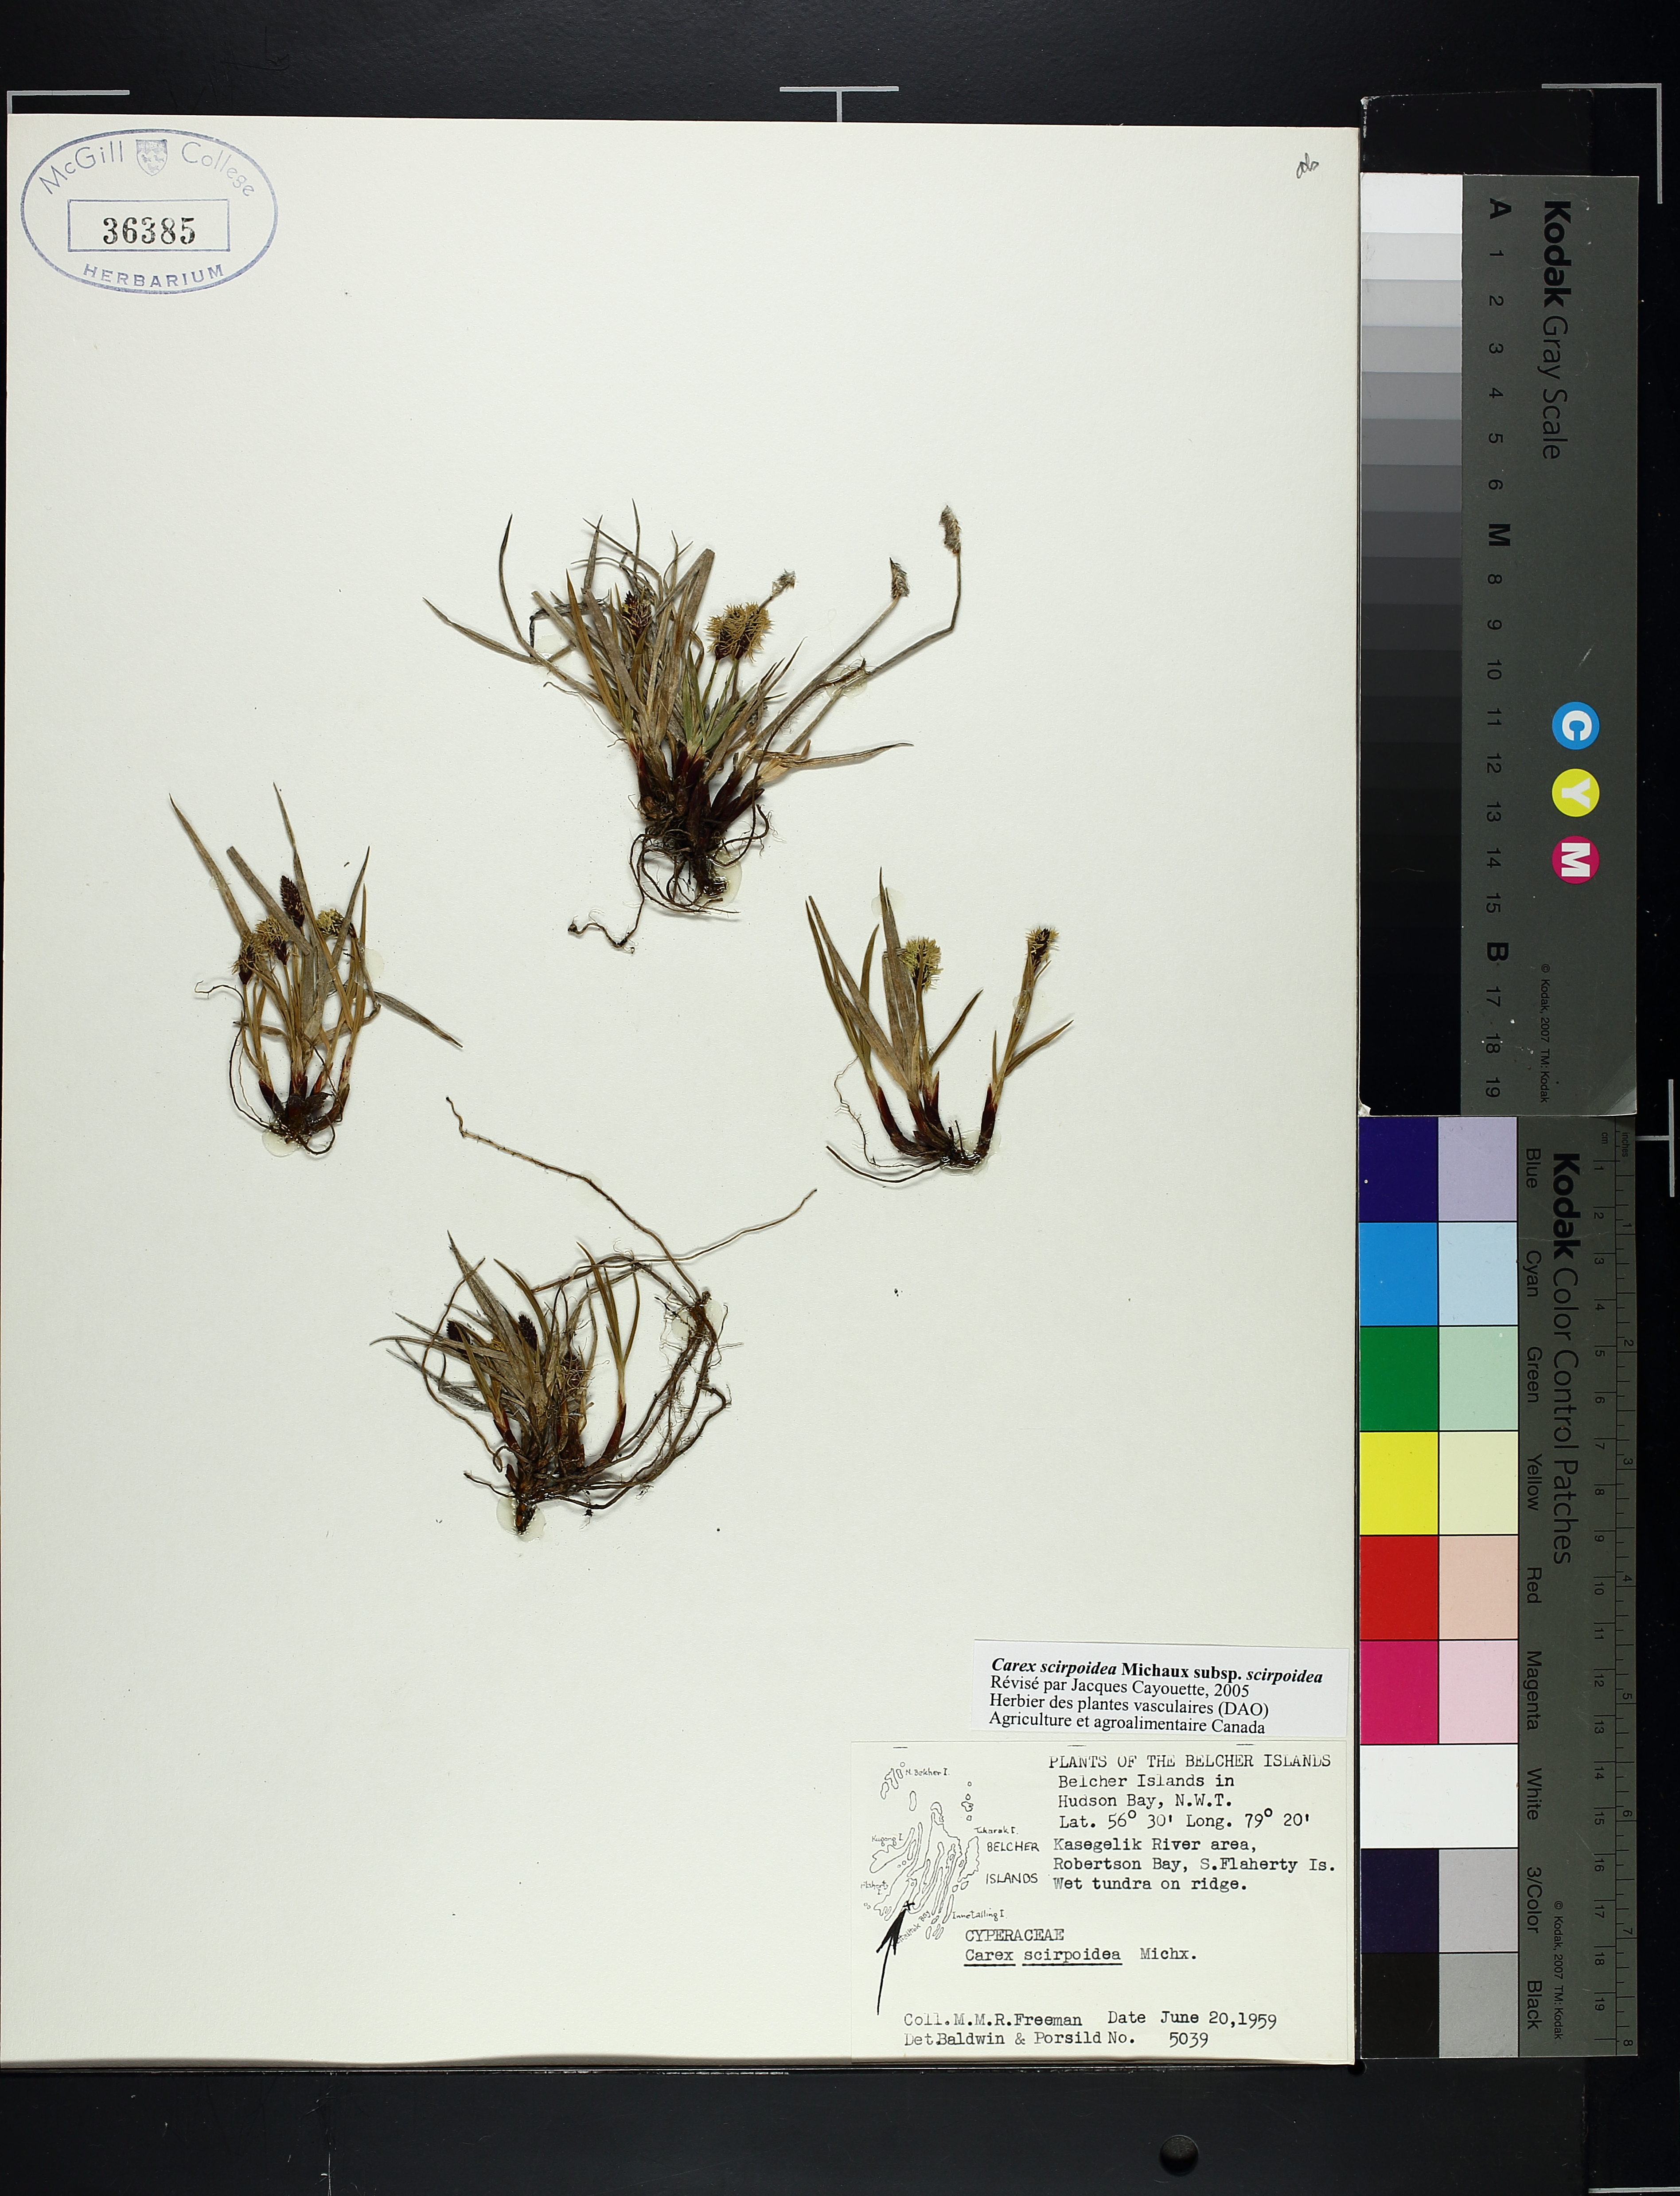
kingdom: Plantae
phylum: Tracheophyta
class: Liliopsida
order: Poales
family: Cyperaceae
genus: Carex
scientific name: Carex scirpoidea
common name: Canada single-spike sedge
